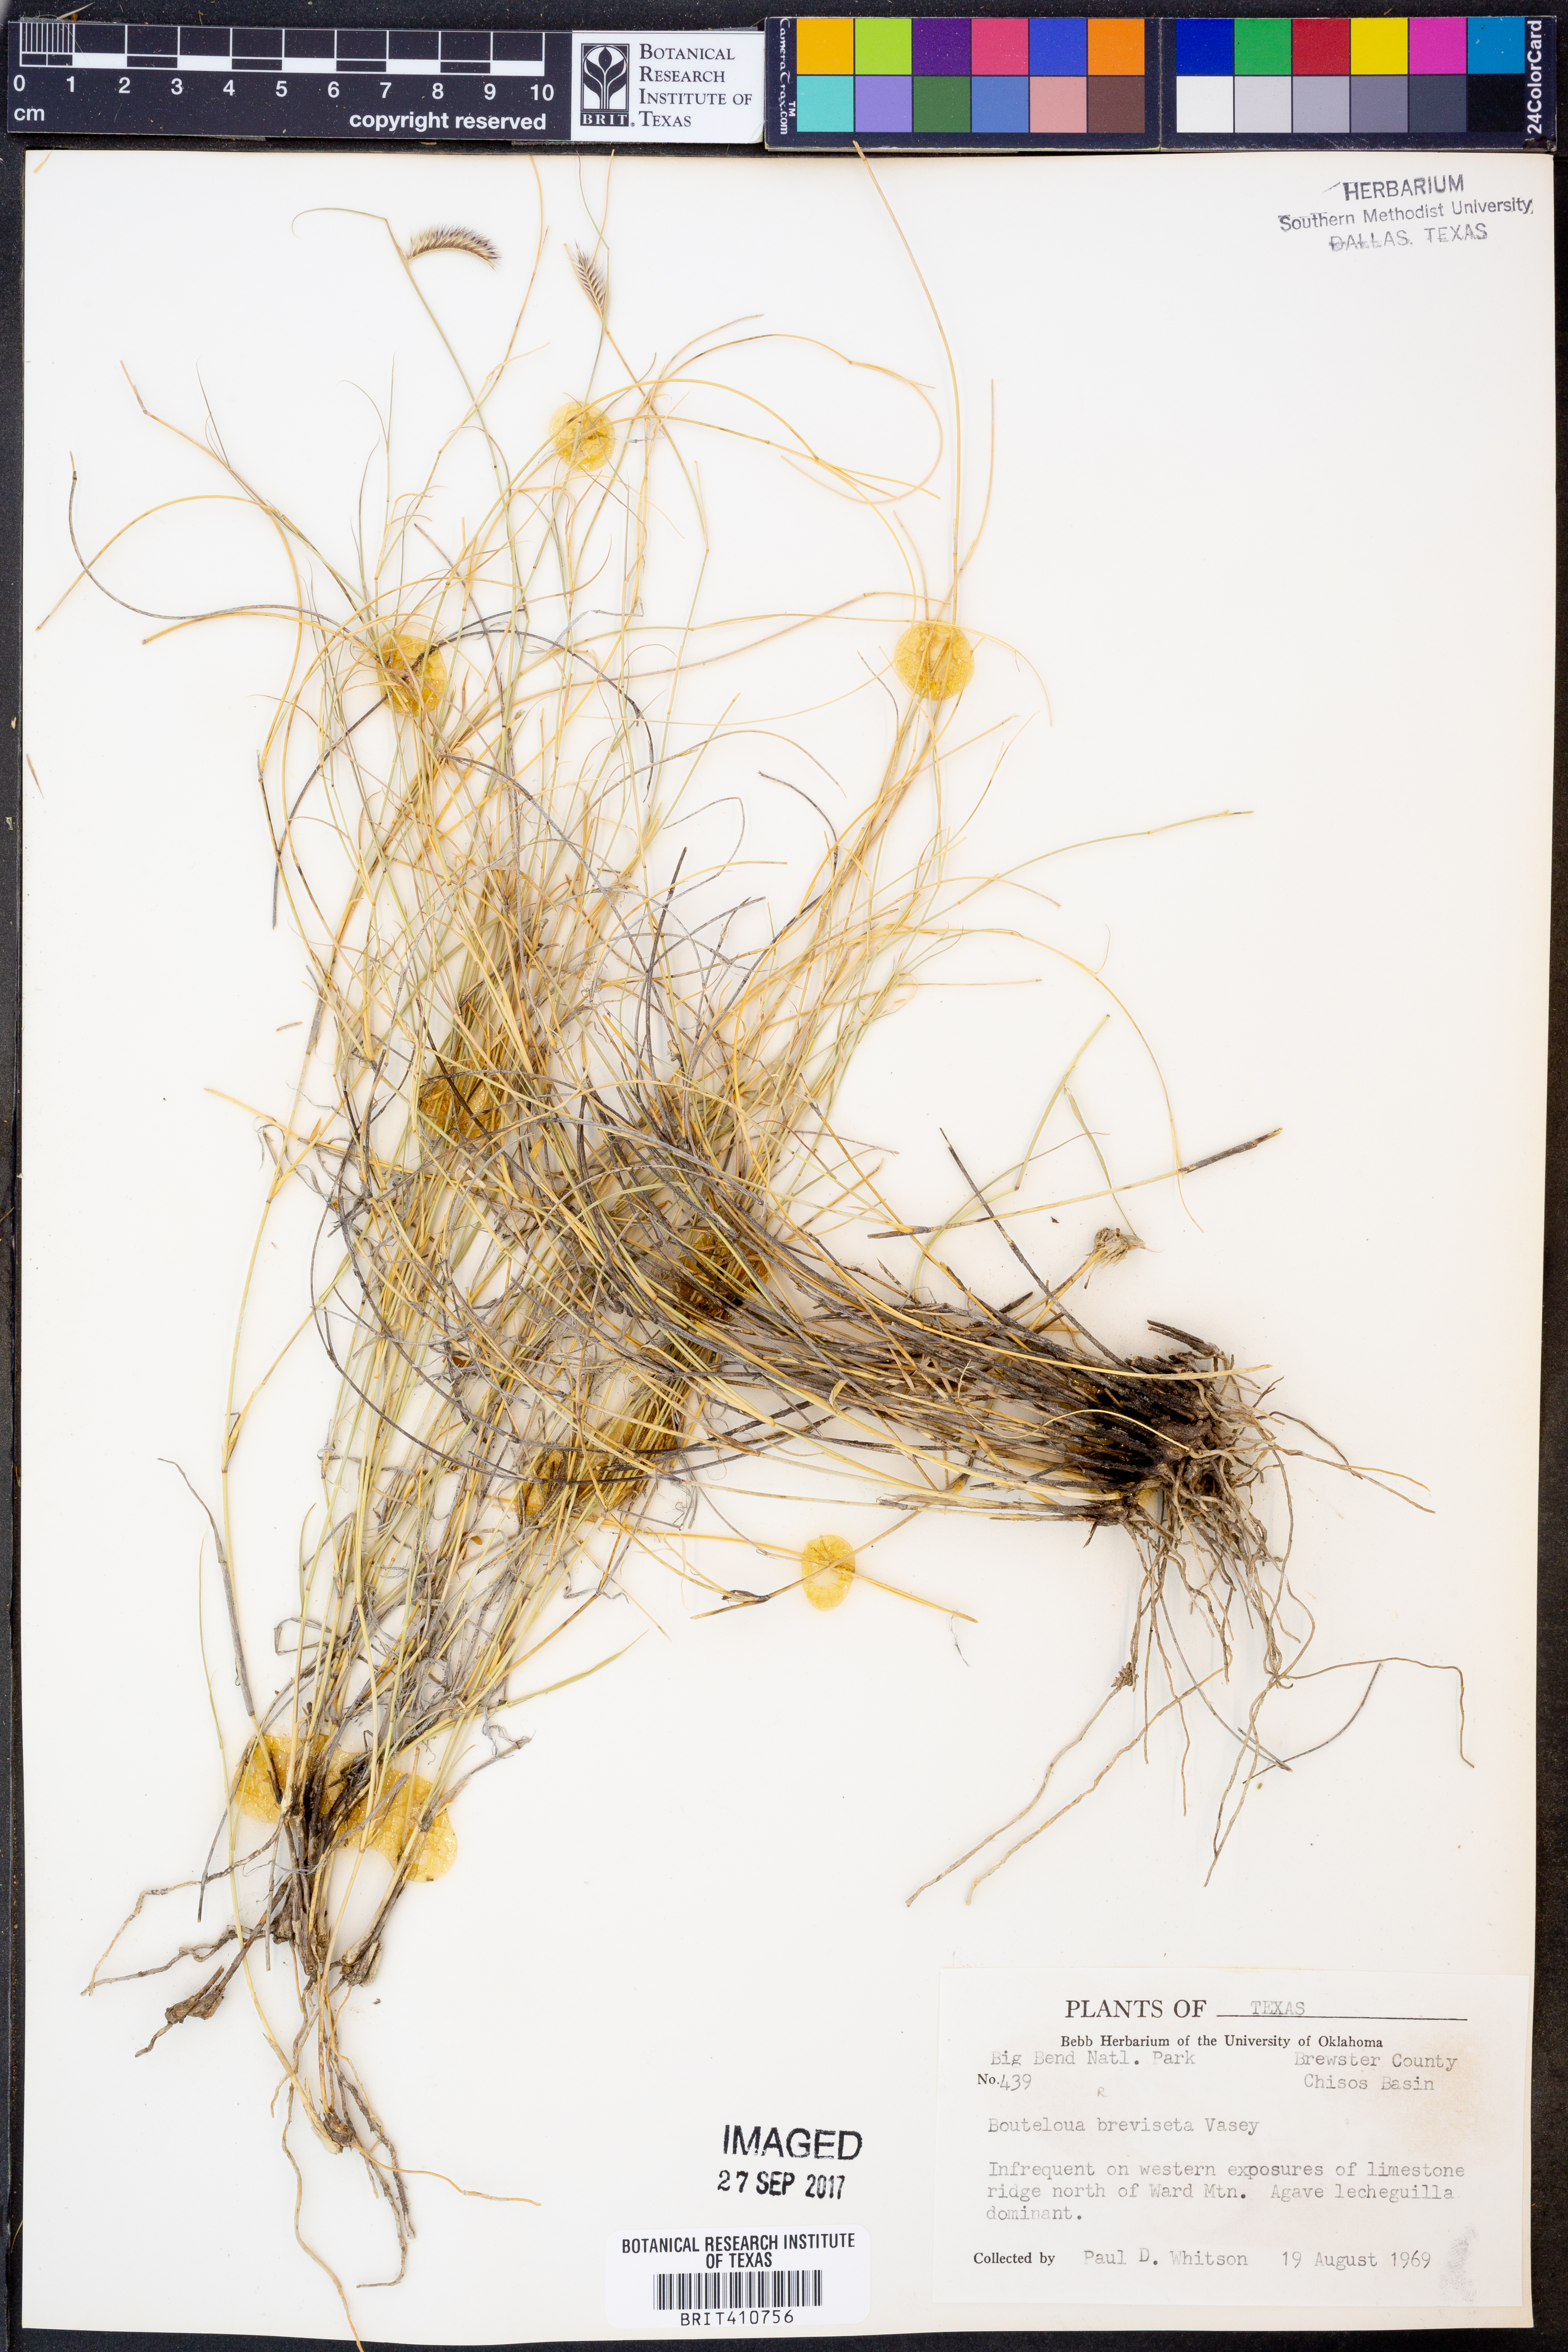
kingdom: Plantae
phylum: Tracheophyta
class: Liliopsida
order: Poales
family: Poaceae
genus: Bouteloua
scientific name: Bouteloua breviseta
